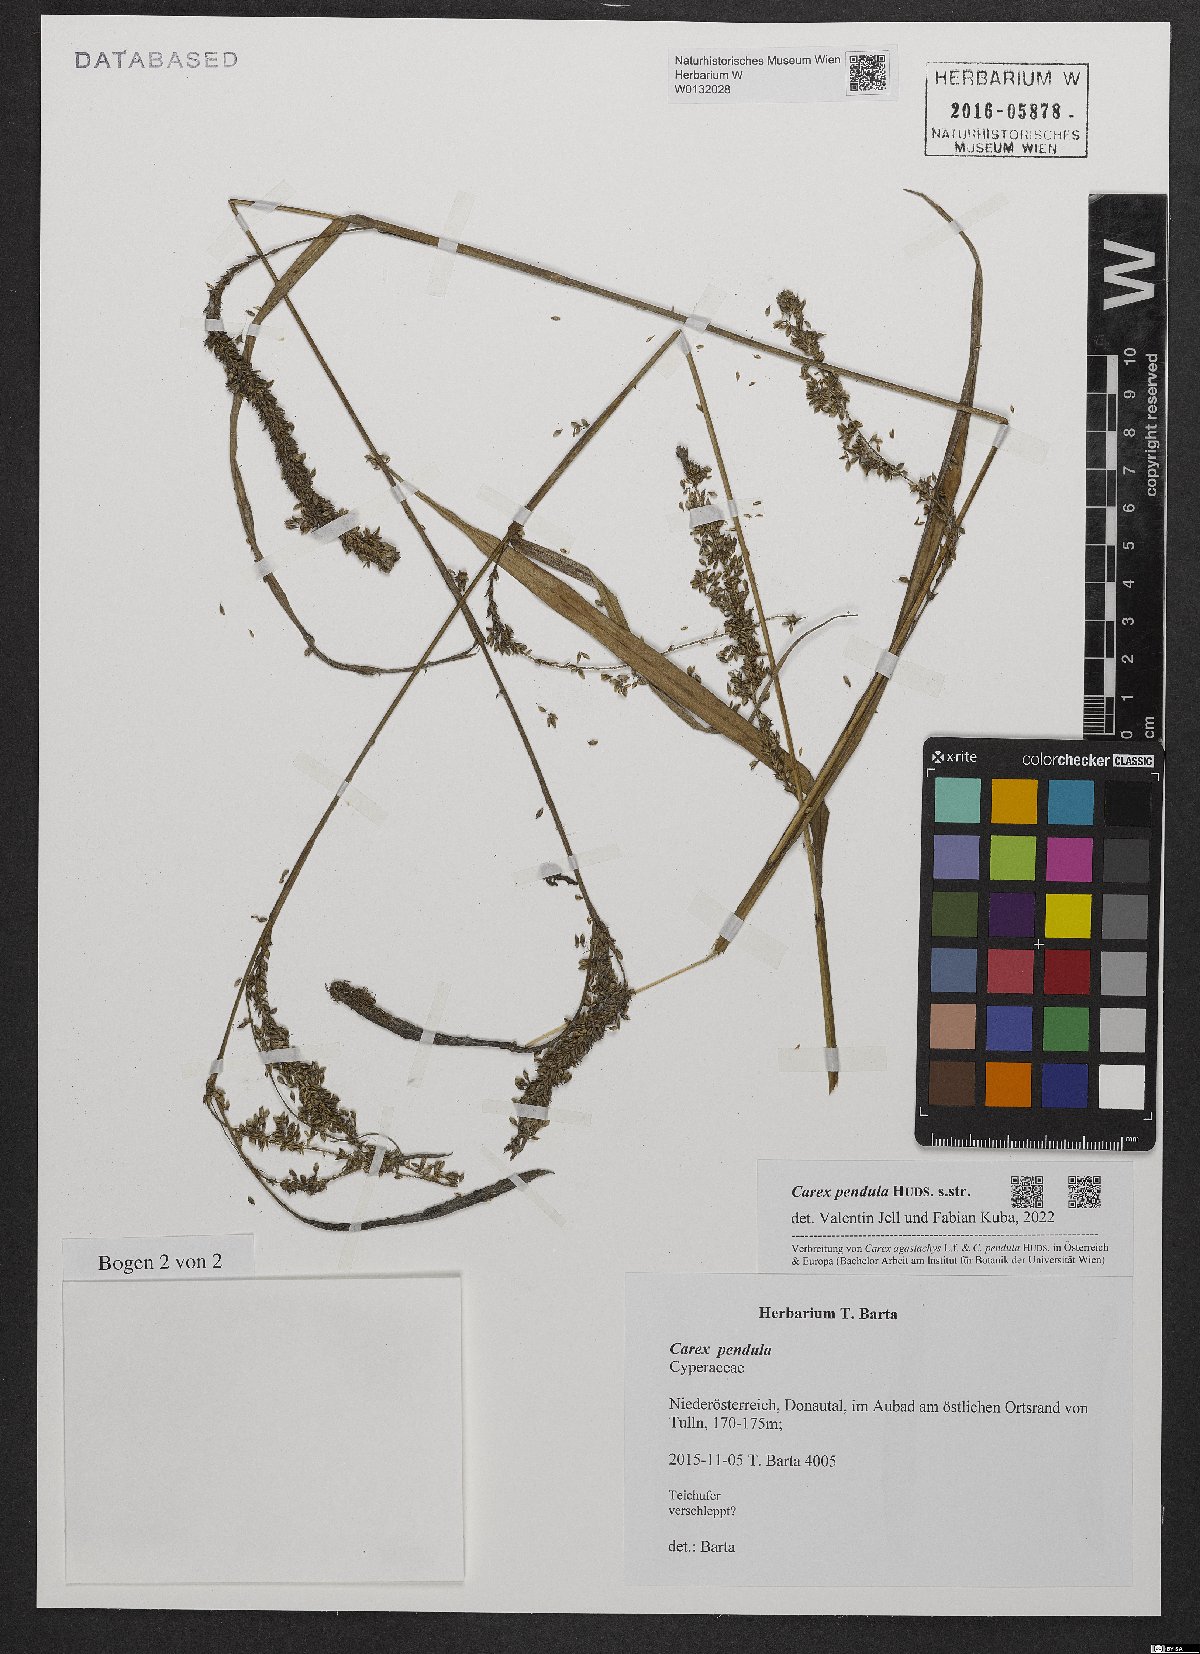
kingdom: Plantae
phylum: Tracheophyta
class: Liliopsida
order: Poales
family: Cyperaceae
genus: Carex
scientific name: Carex pendula
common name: Pendulous sedge
